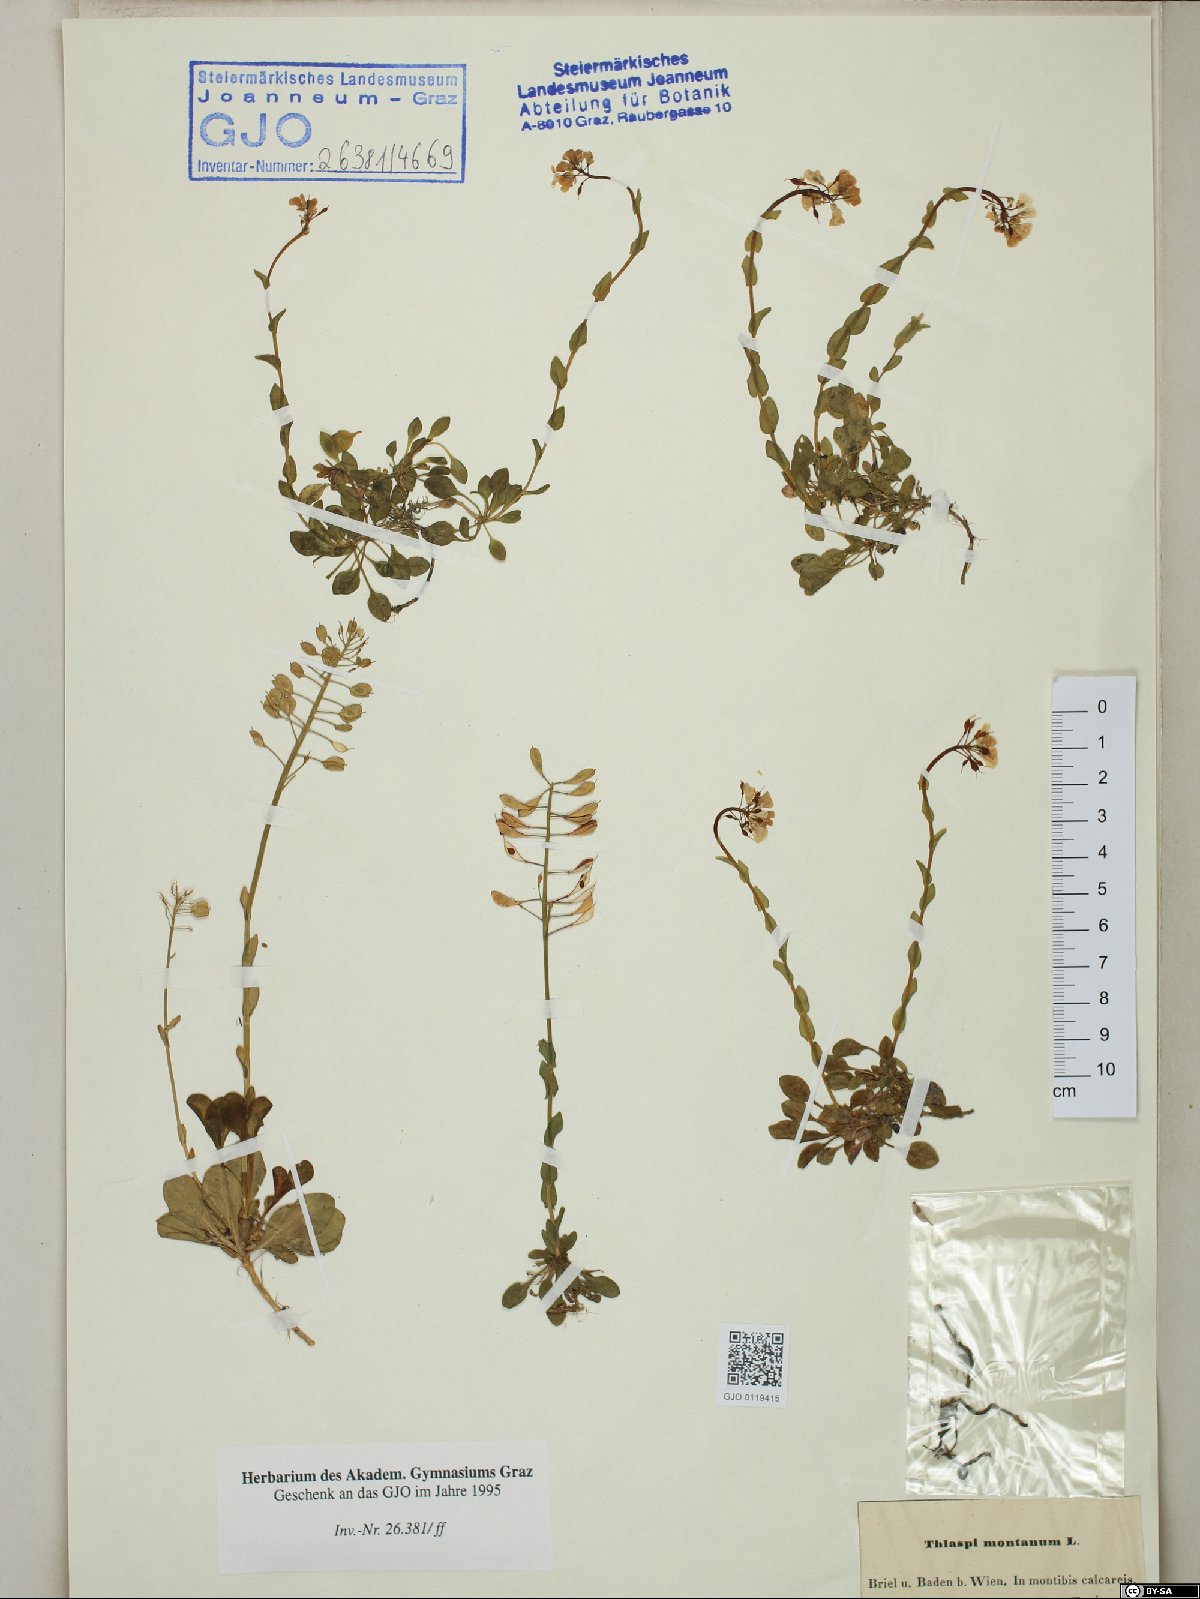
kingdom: Plantae
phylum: Tracheophyta
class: Magnoliopsida
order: Brassicales
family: Brassicaceae
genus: Noccaea
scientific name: Noccaea montana
